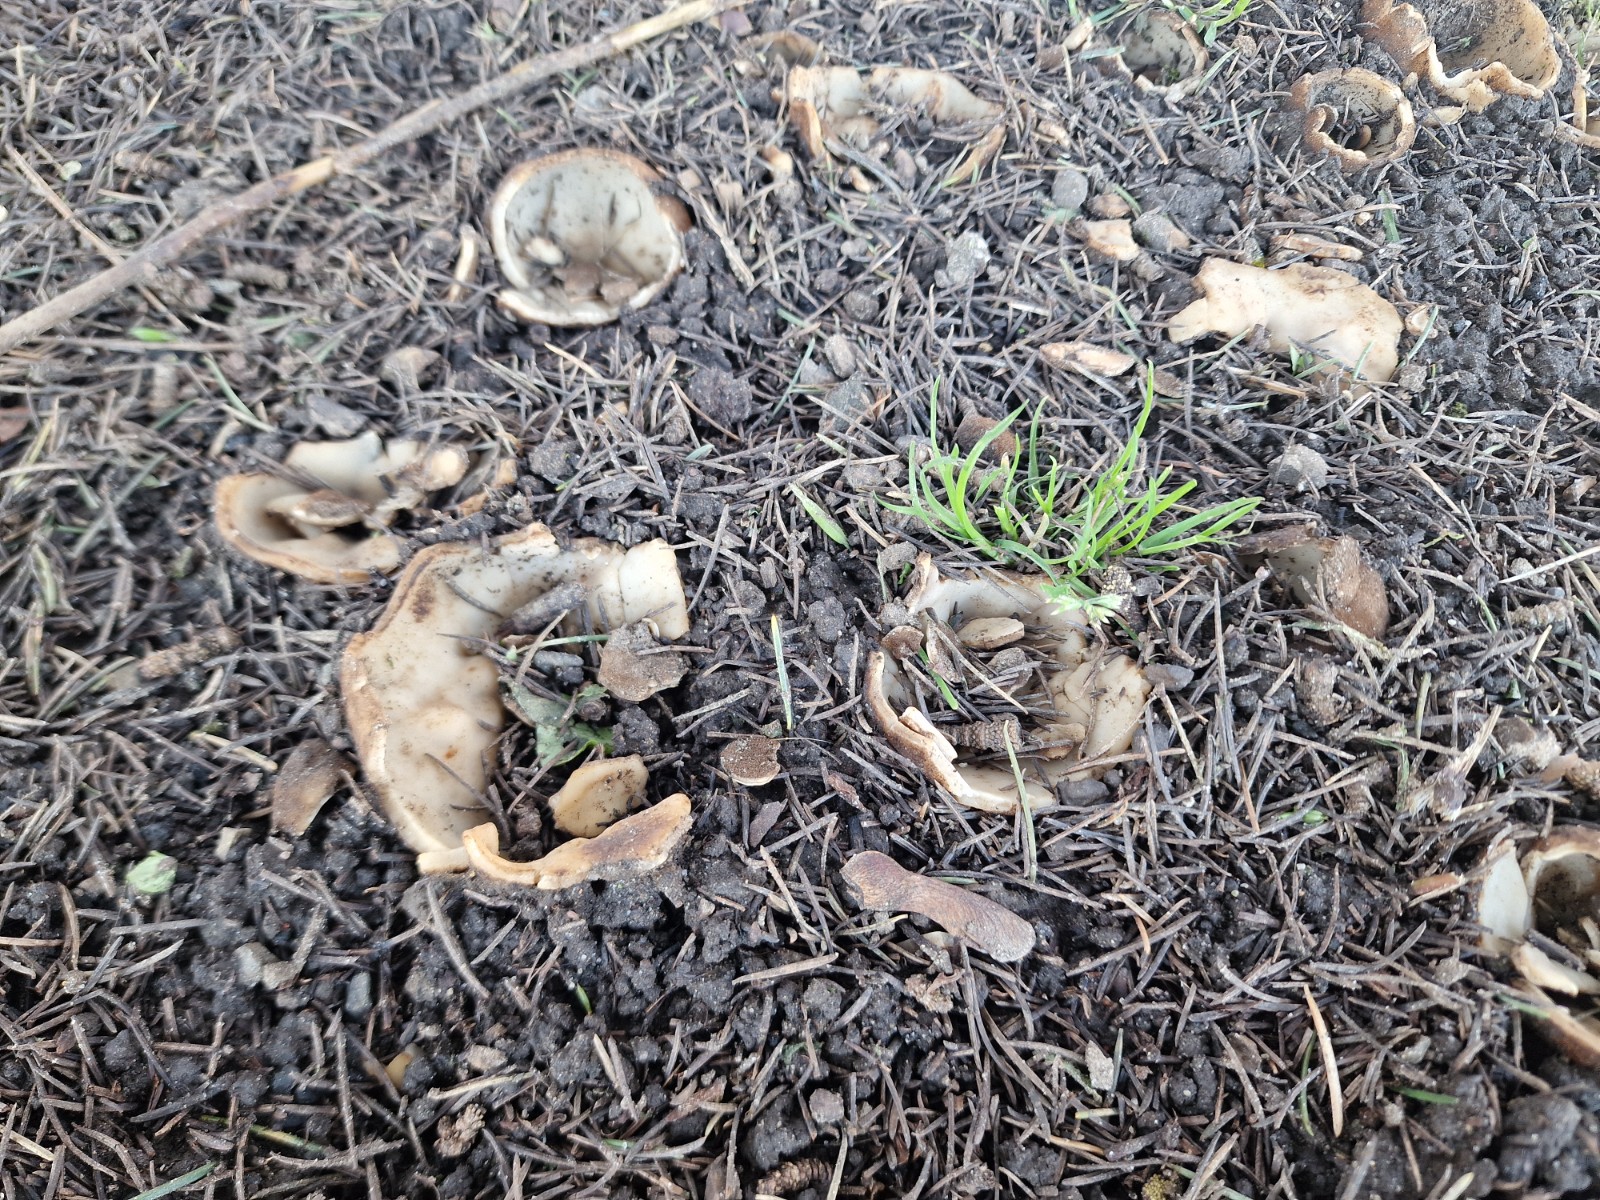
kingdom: Fungi
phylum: Ascomycota
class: Pezizomycetes
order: Pezizales
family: Pyronemataceae
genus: Geopora
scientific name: Geopora sumneriana
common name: vår-jordbæger
